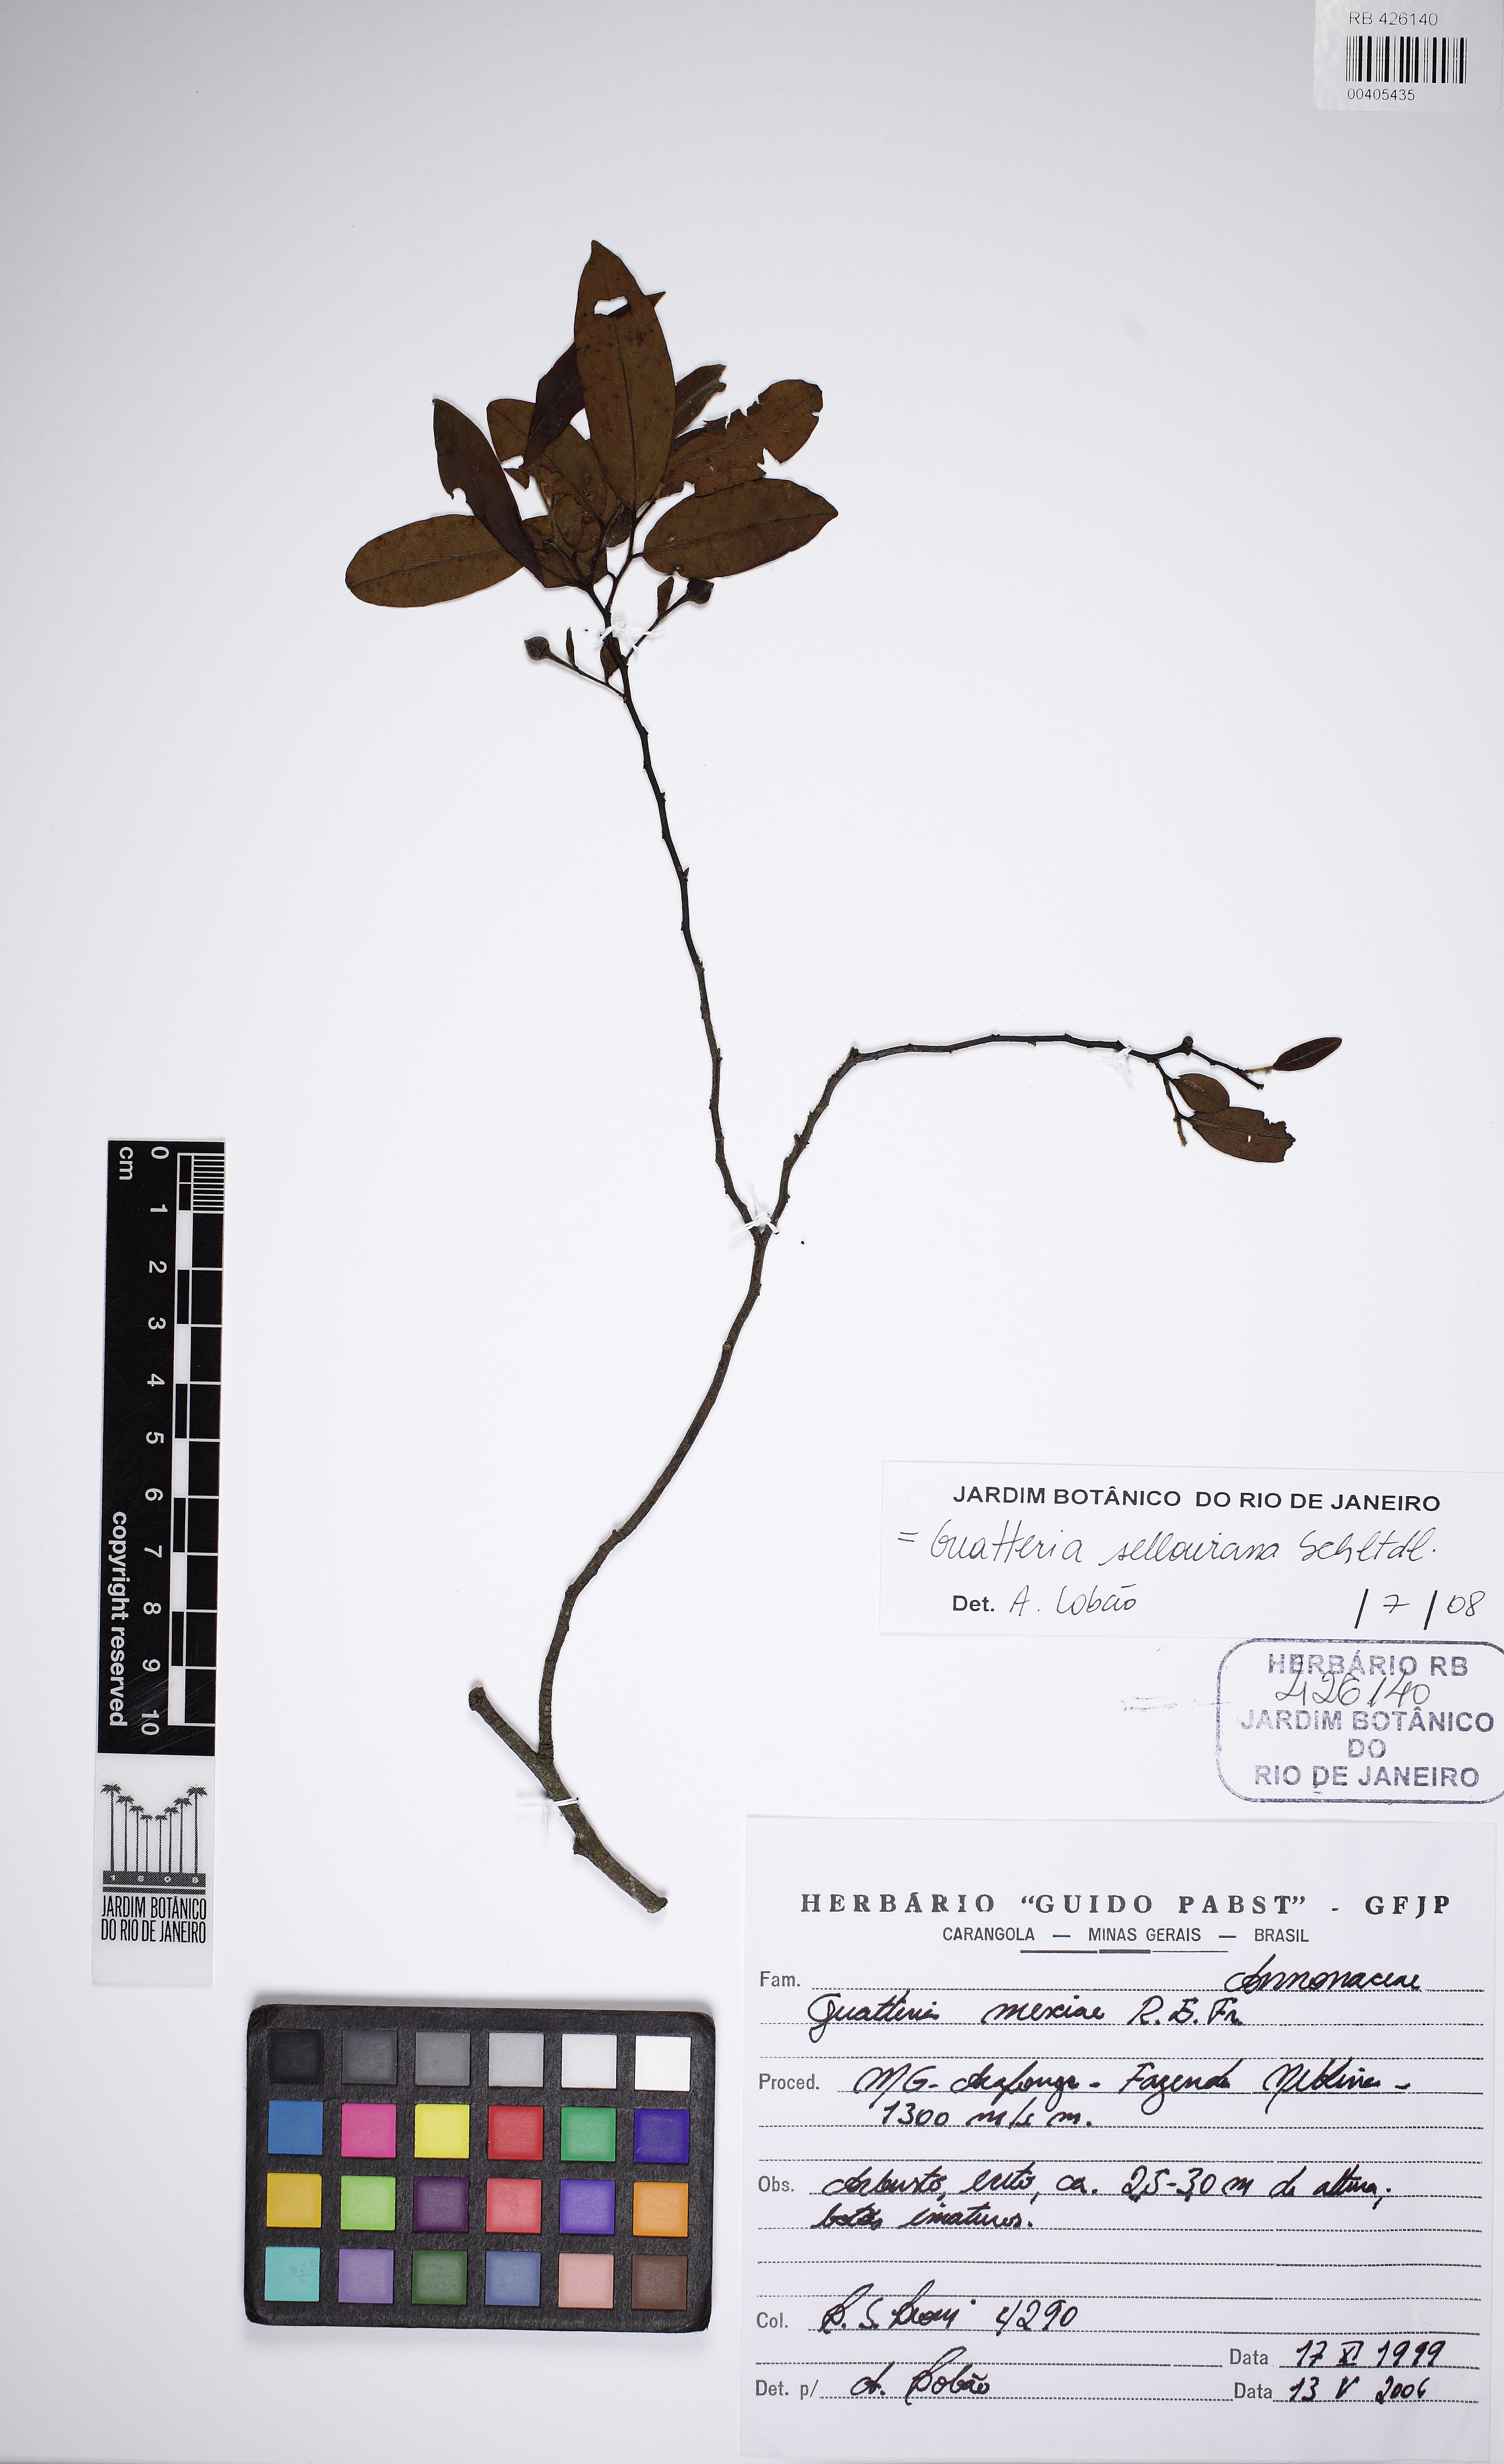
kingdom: Plantae
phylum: Tracheophyta
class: Magnoliopsida
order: Magnoliales
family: Annonaceae
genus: Guatteria
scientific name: Guatteria sellowiana
